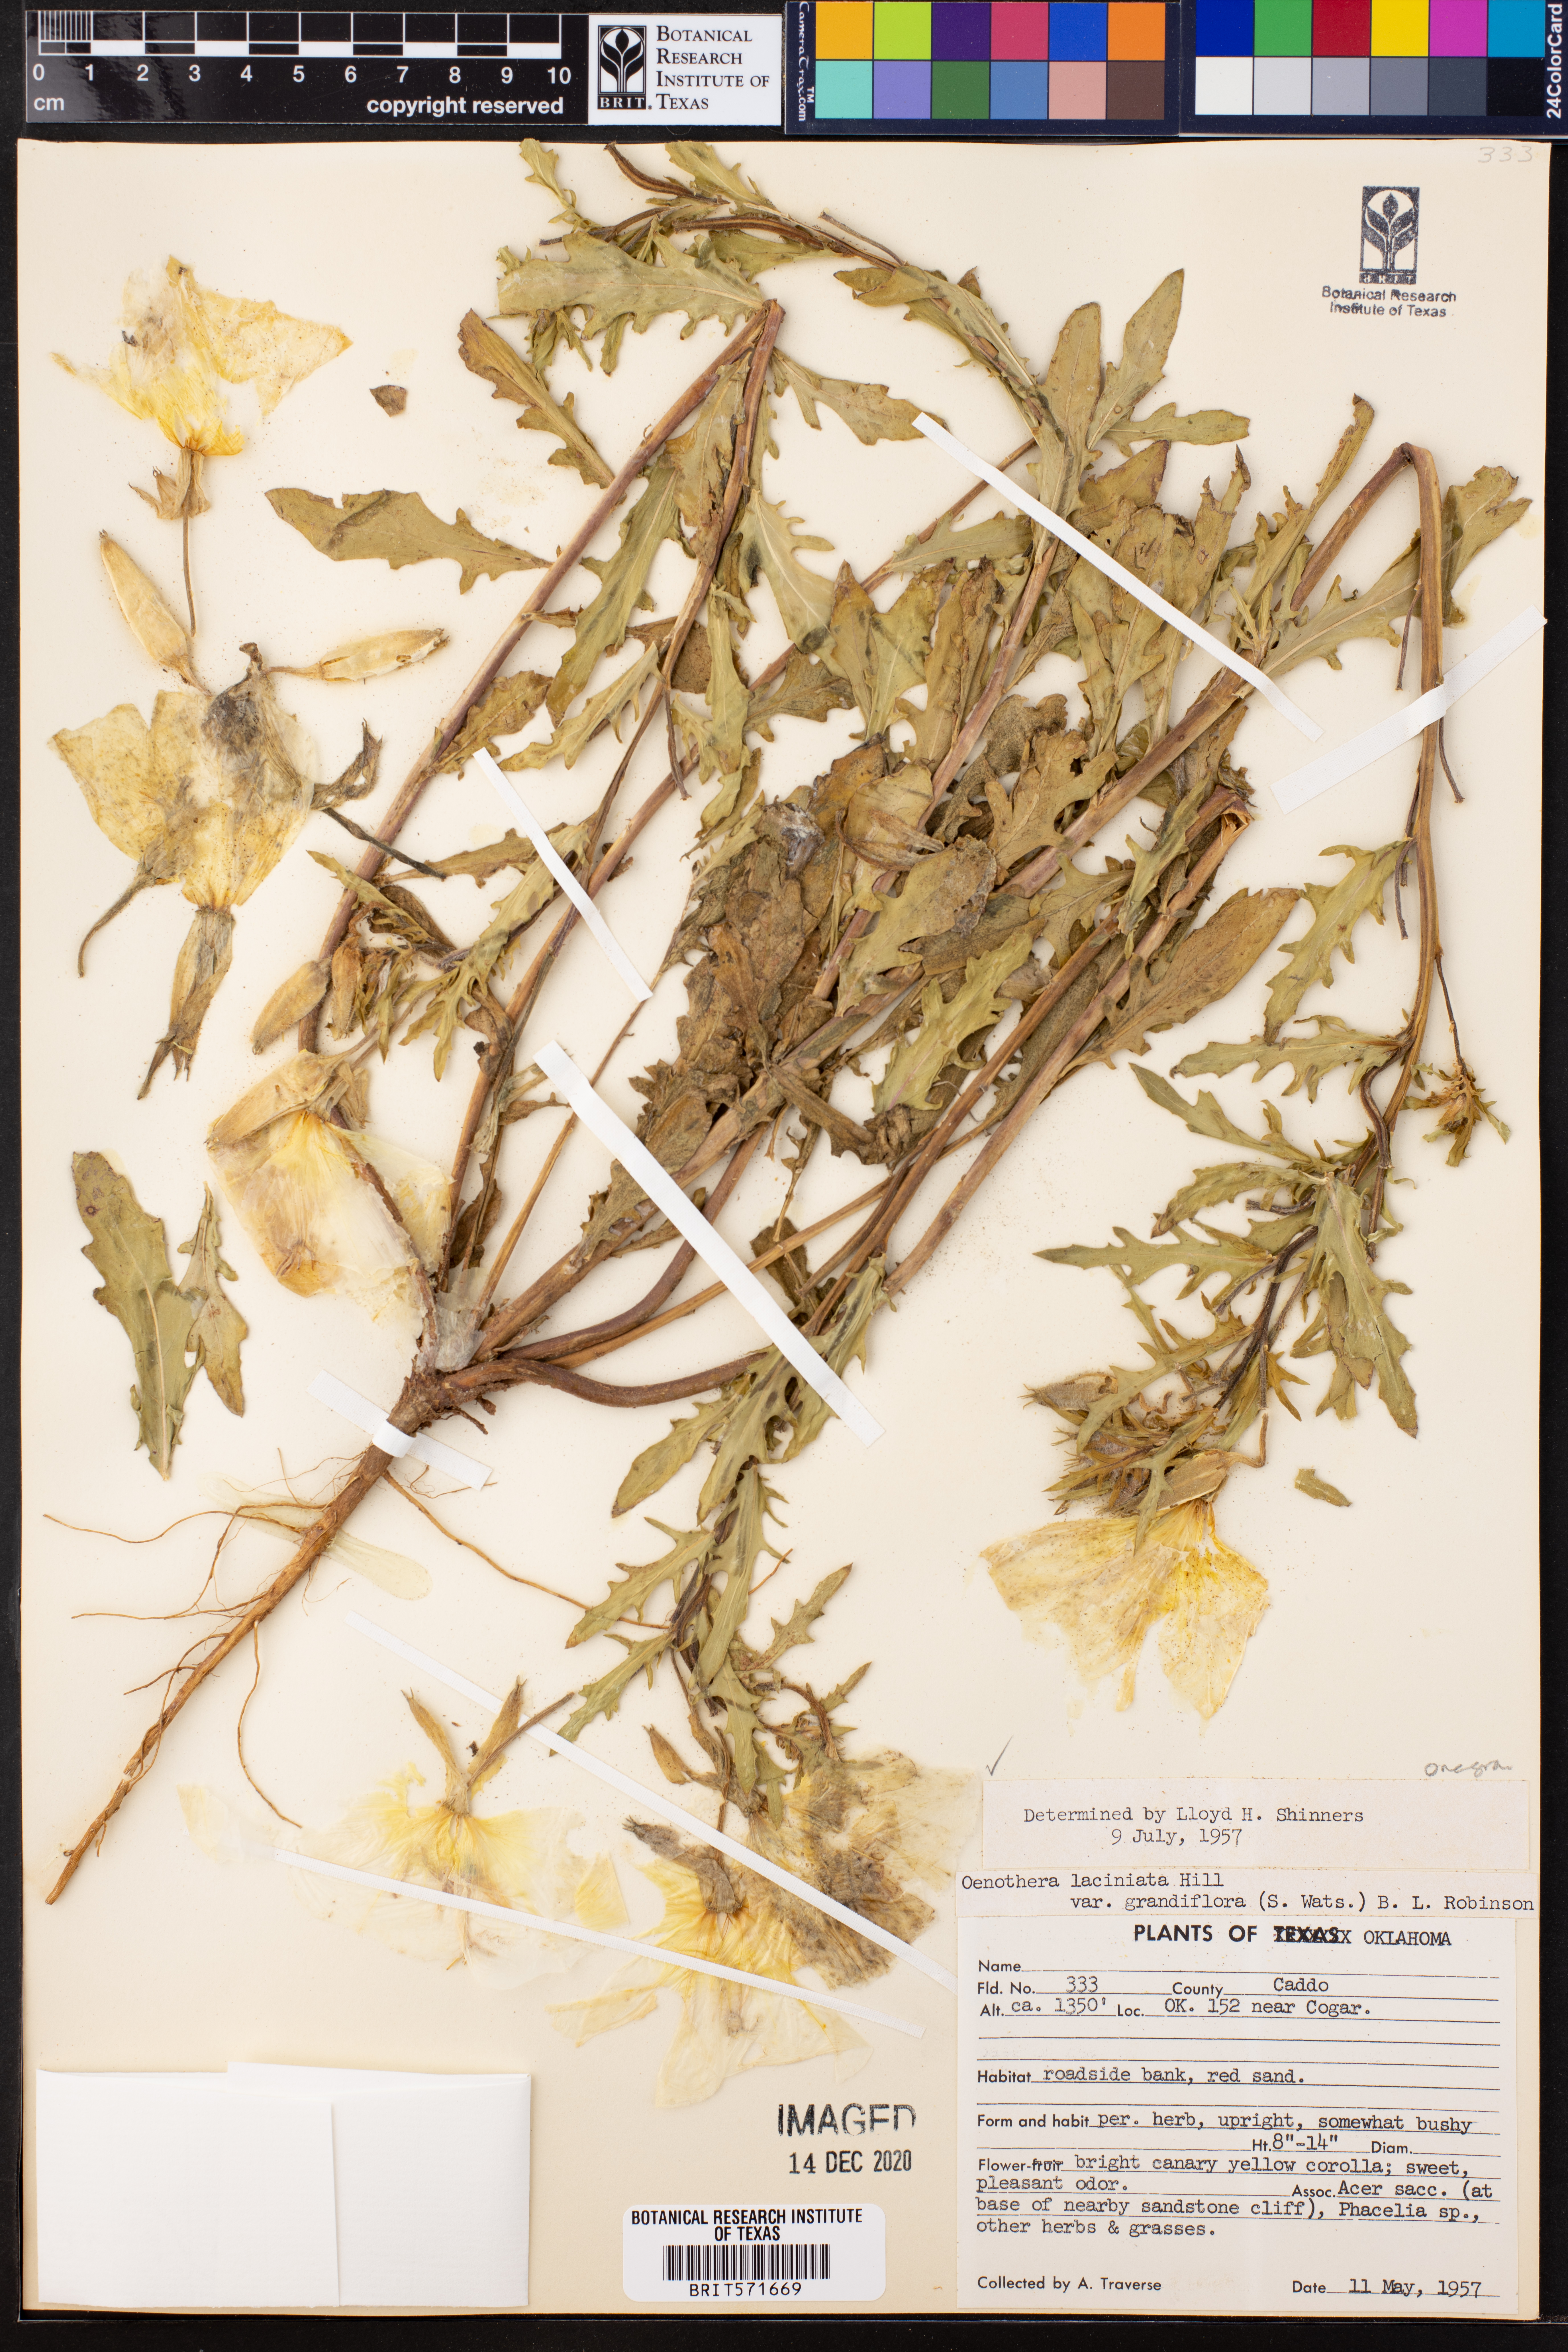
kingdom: Plantae
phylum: Tracheophyta
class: Magnoliopsida
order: Myrtales
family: Onagraceae
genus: Oenothera
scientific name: Oenothera grandis
